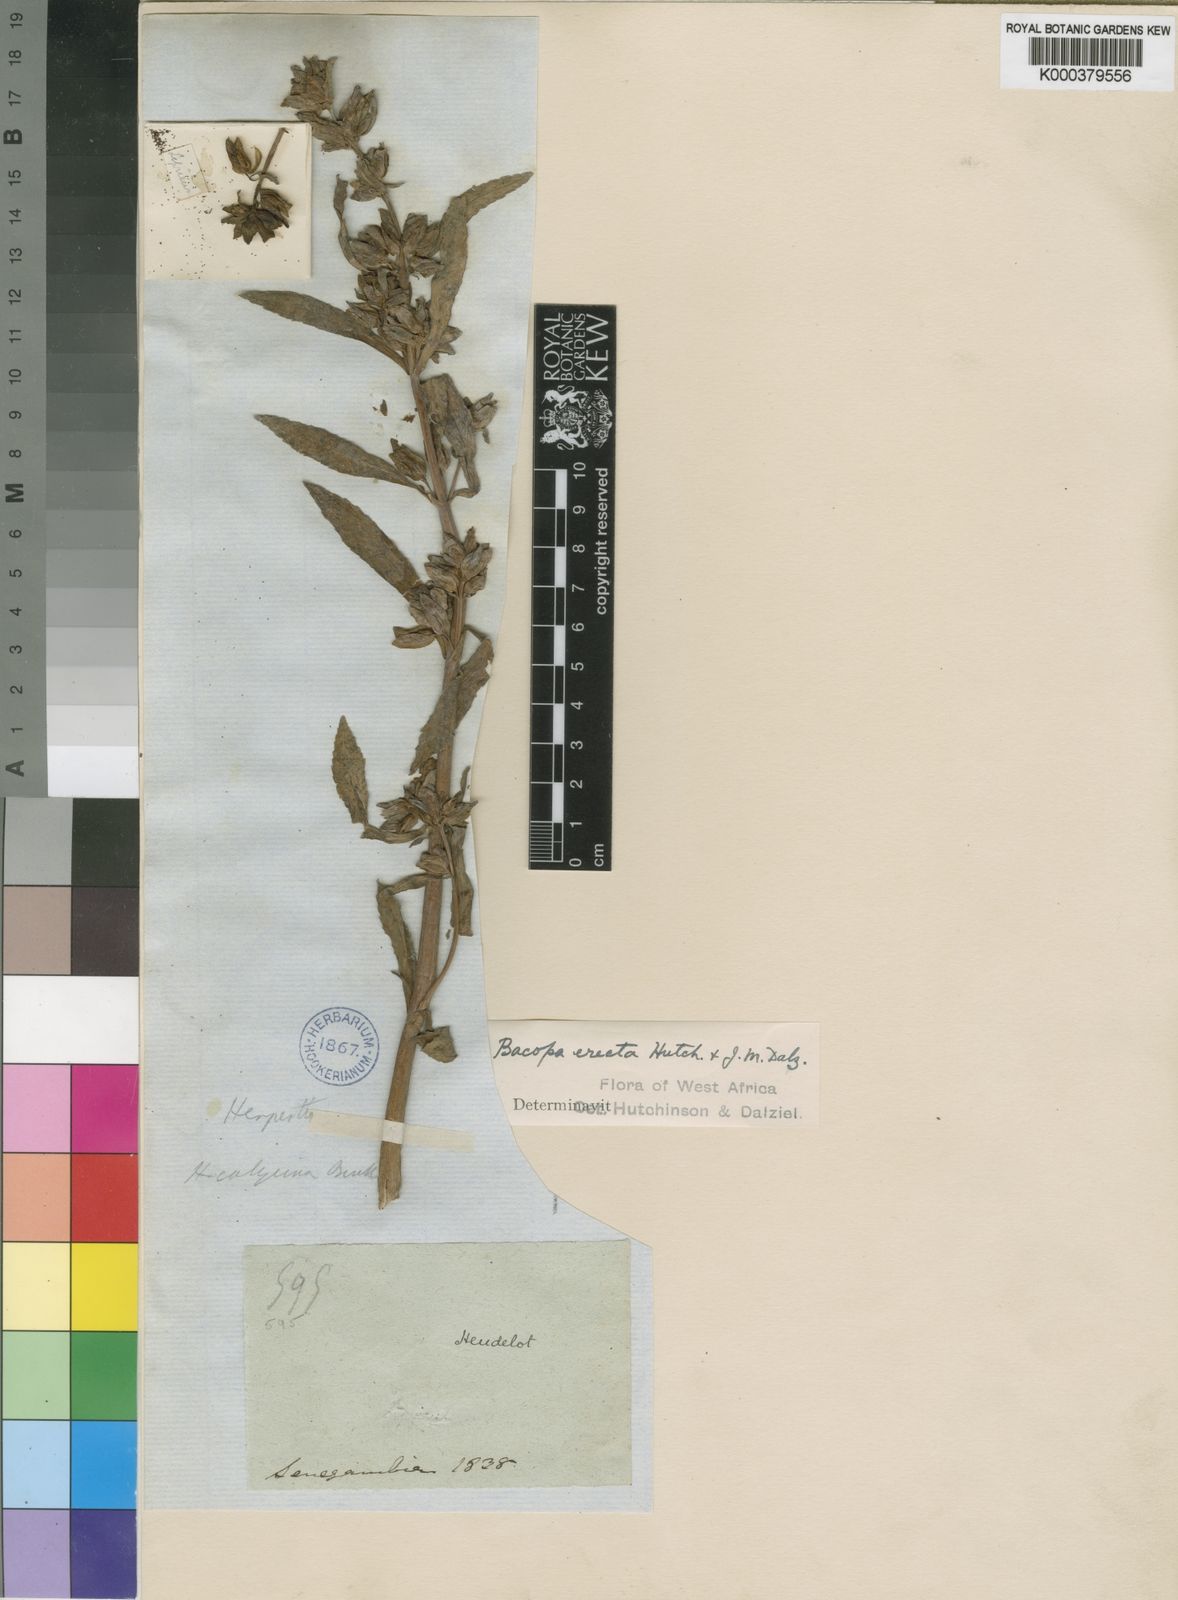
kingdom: Plantae
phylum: Tracheophyta
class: Magnoliopsida
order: Lamiales
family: Plantaginaceae
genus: Bacopa
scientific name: Bacopa decumbens
